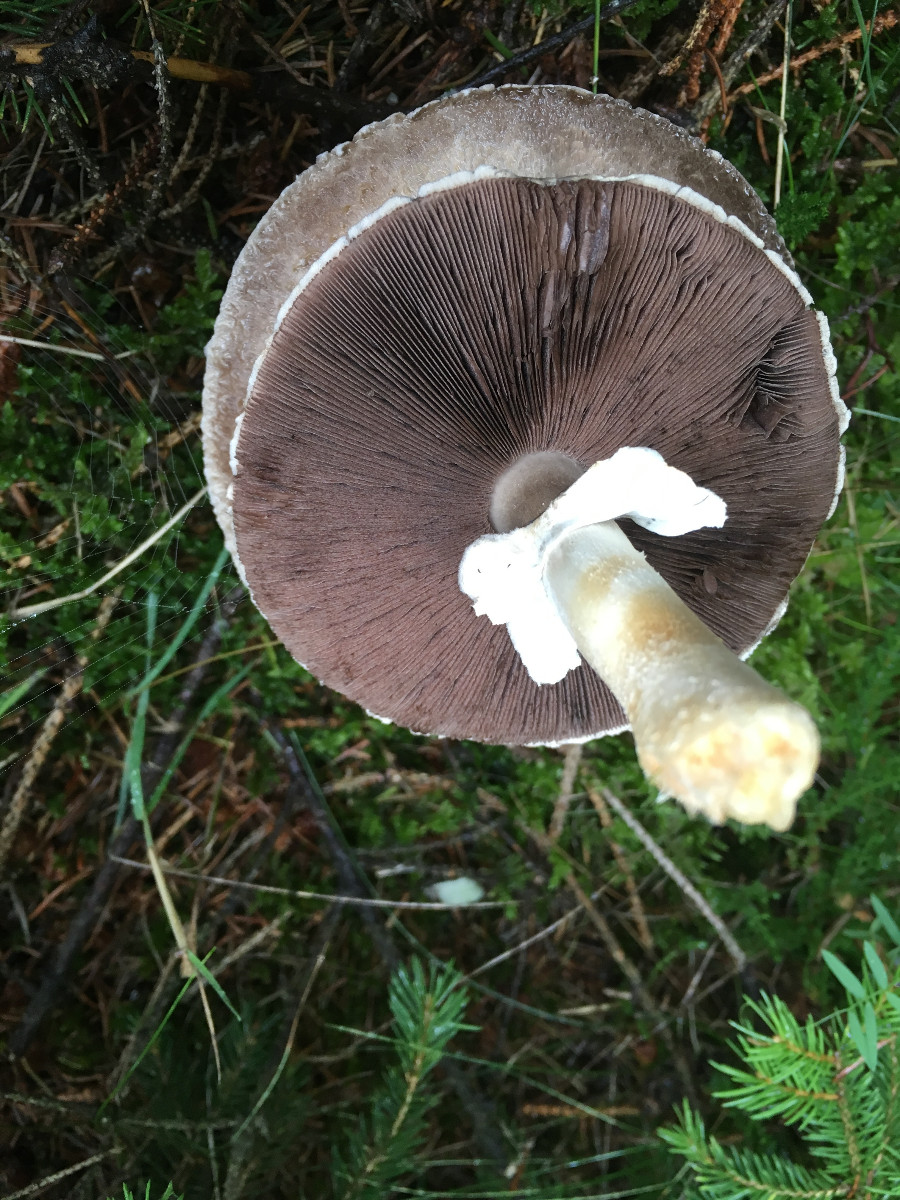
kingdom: Fungi
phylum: Basidiomycota
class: Agaricomycetes
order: Agaricales
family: Agaricaceae
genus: Agaricus
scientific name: Agaricus
